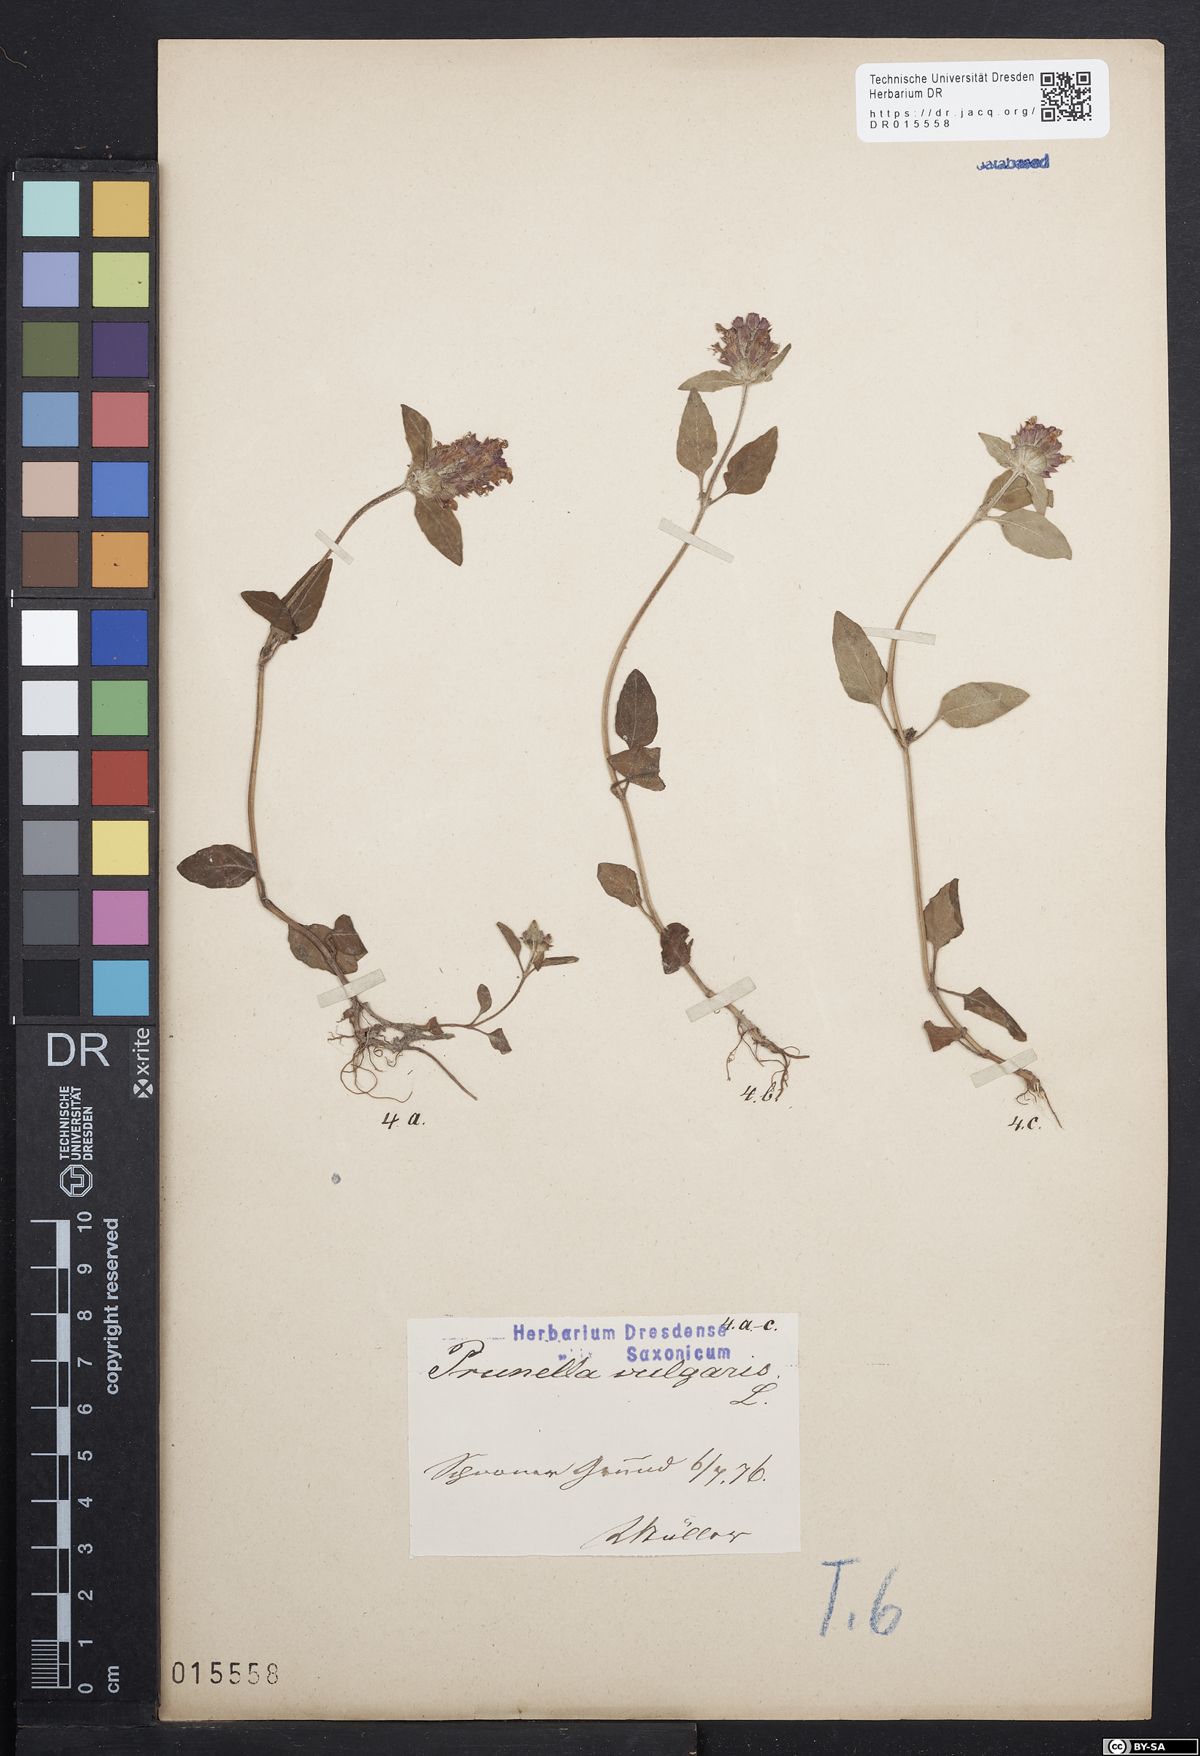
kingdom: Plantae
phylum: Tracheophyta
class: Magnoliopsida
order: Lamiales
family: Lamiaceae
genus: Prunella
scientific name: Prunella vulgaris
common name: Heal-all
